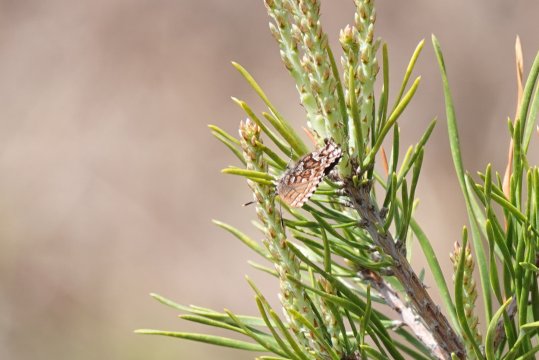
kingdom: Animalia
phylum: Arthropoda
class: Insecta
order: Lepidoptera
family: Lycaenidae
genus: Incisalia
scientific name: Incisalia niphon
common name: Eastern Pine Elfin
